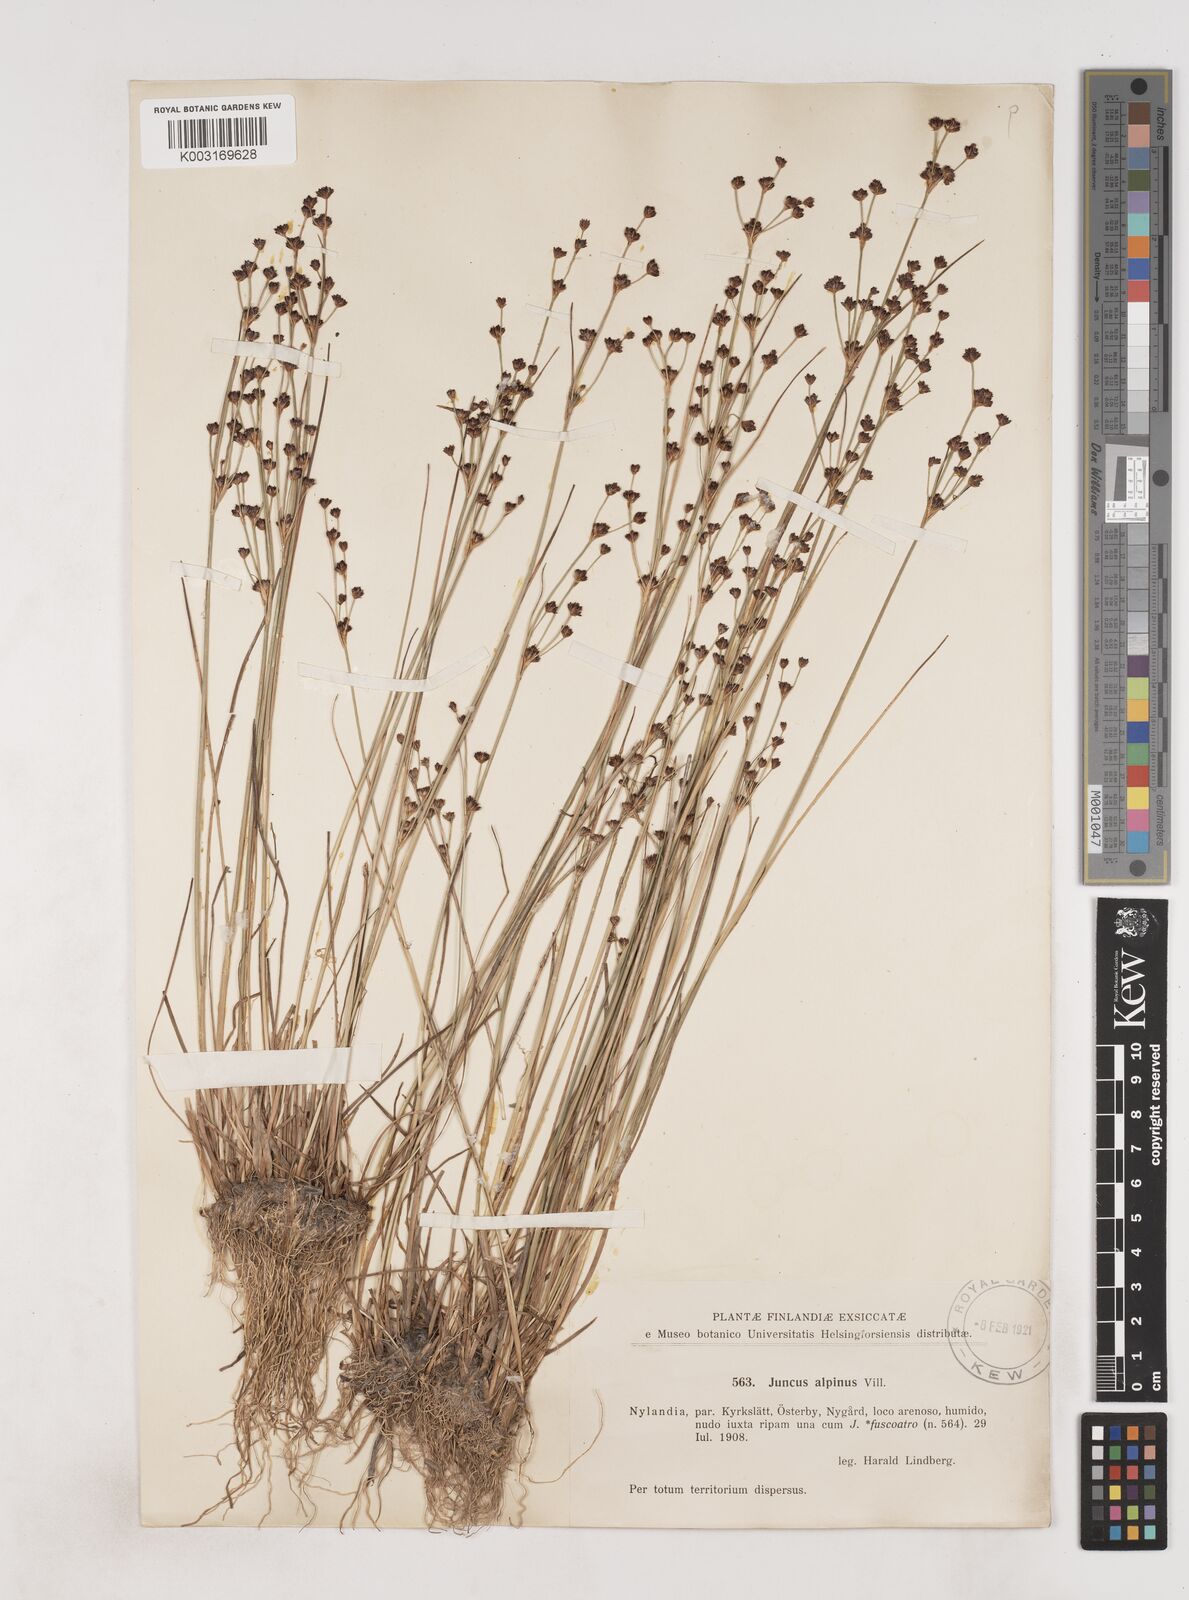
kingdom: Plantae
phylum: Tracheophyta
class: Liliopsida
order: Poales
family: Juncaceae
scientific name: Juncaceae
